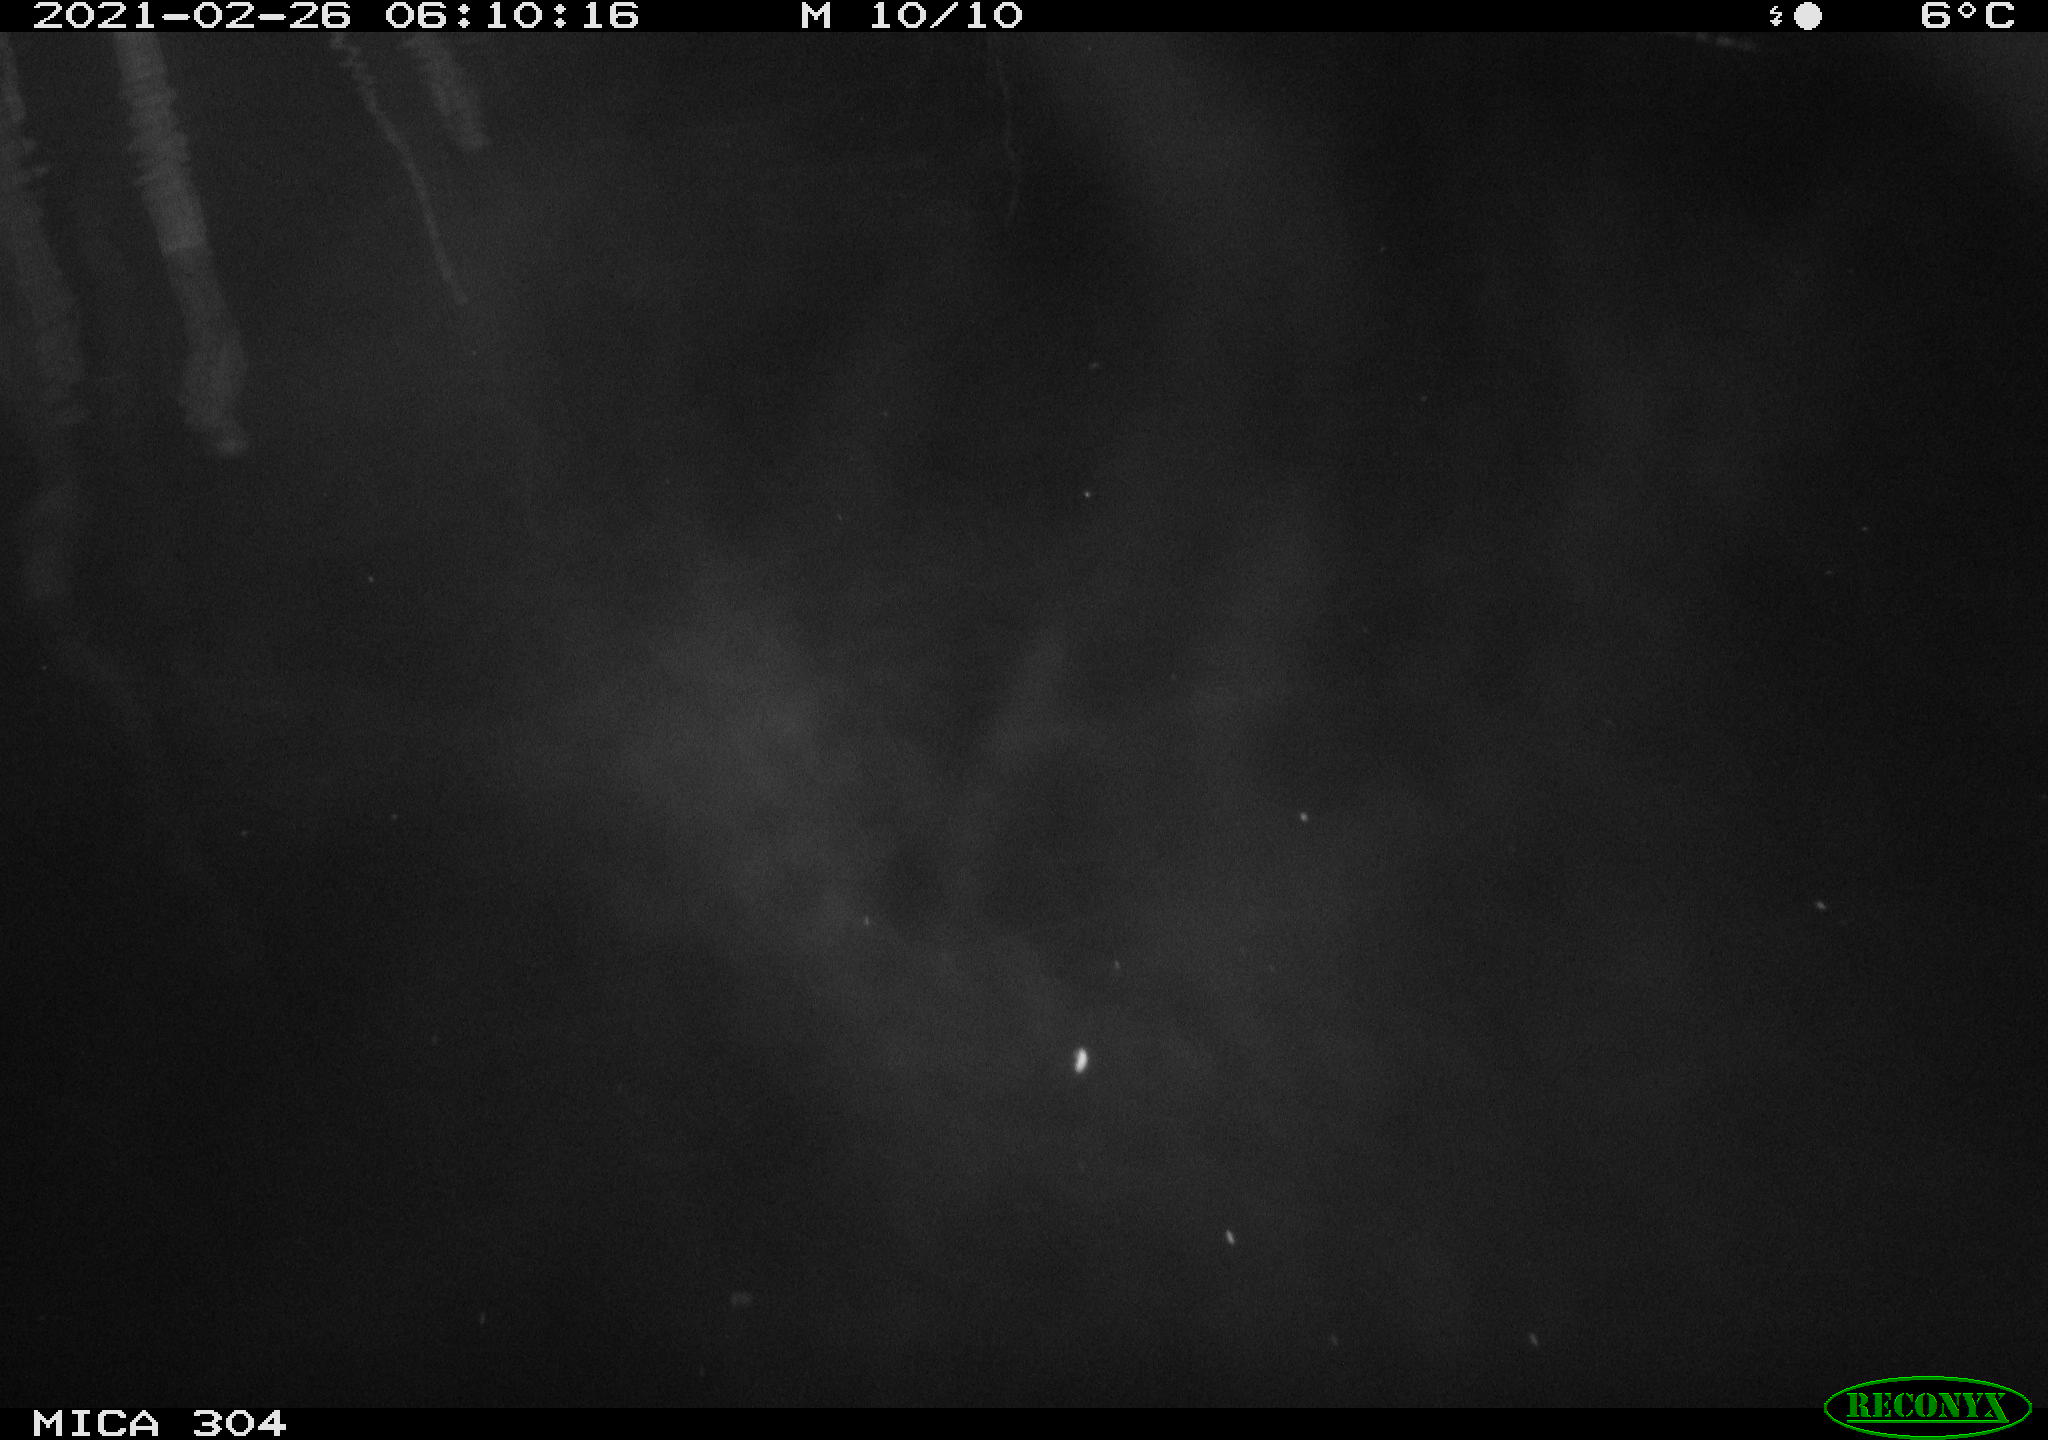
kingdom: Animalia
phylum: Chordata
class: Aves
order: Gruiformes
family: Rallidae
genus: Fulica
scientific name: Fulica atra
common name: Eurasian coot
